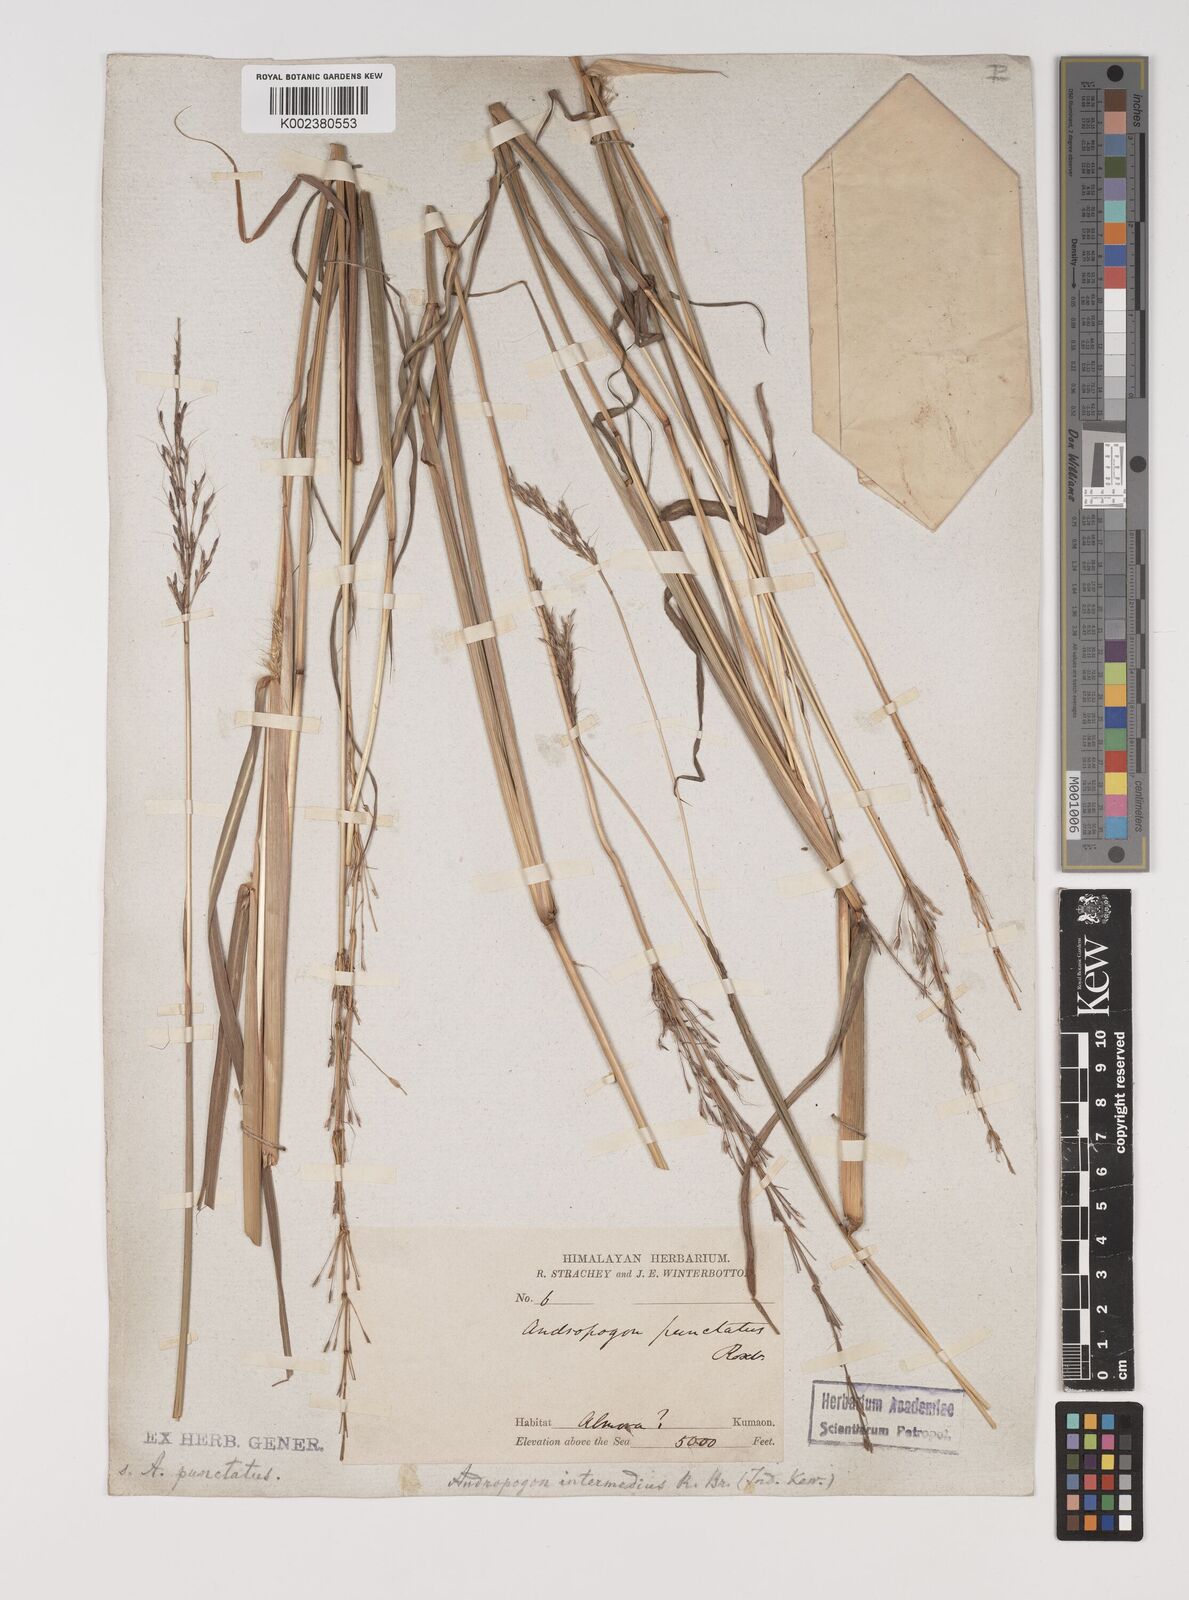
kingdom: Plantae
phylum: Tracheophyta
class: Liliopsida
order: Poales
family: Poaceae
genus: Bothriochloa
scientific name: Bothriochloa bladhii
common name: Caucasian bluestem
